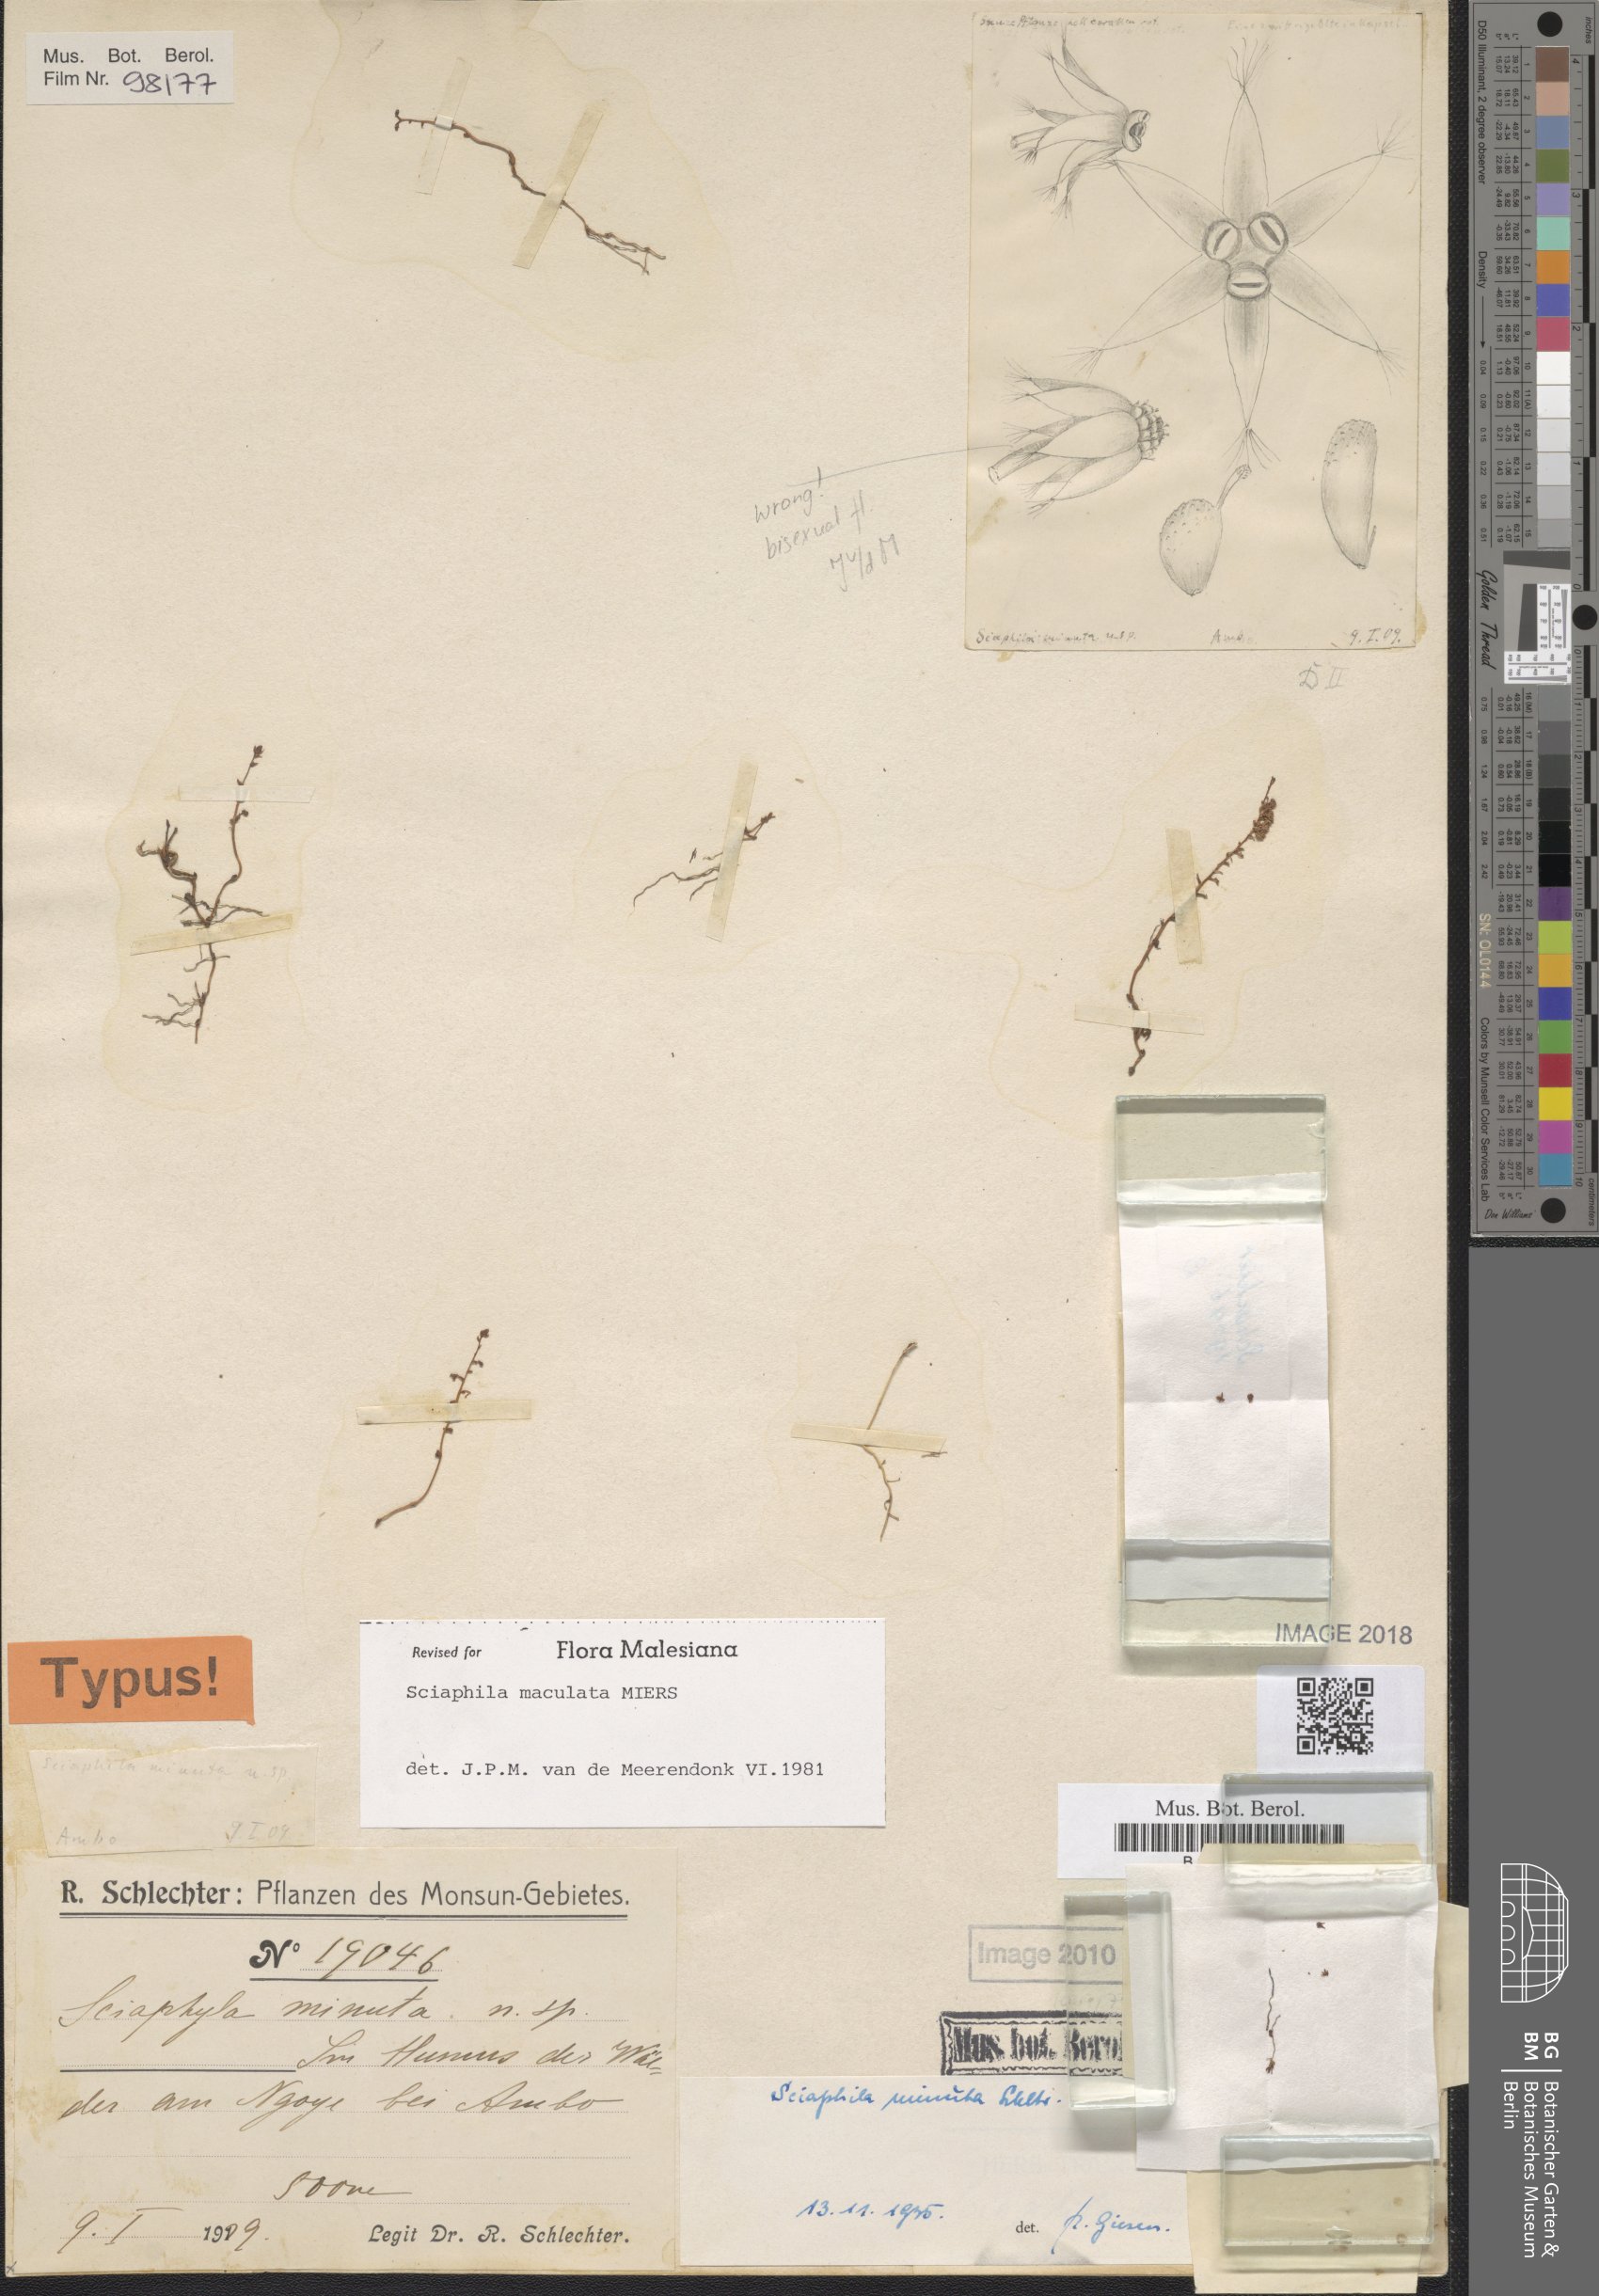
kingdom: Plantae
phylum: Tracheophyta
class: Liliopsida
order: Pandanales
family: Triuridaceae
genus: Sciaphila
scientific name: Sciaphila tenella
